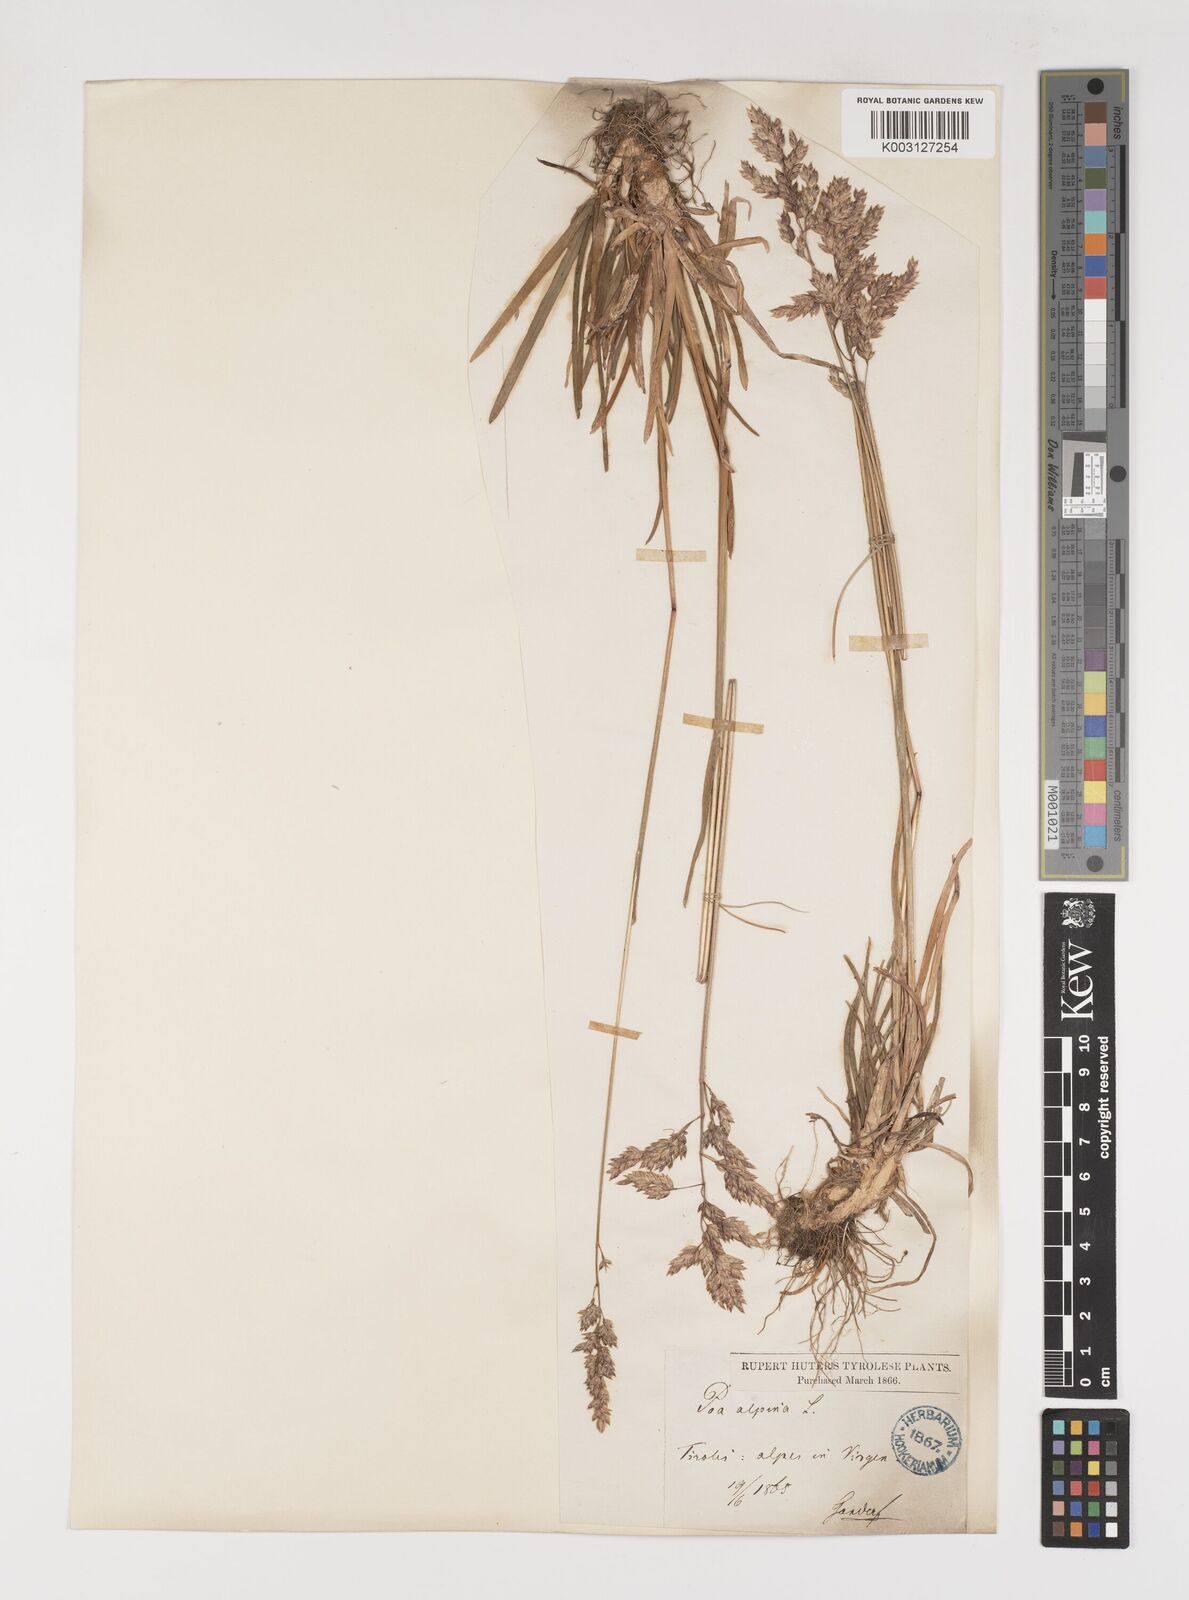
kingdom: Plantae
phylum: Tracheophyta
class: Liliopsida
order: Poales
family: Poaceae
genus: Poa
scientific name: Poa alpina
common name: Alpine bluegrass
